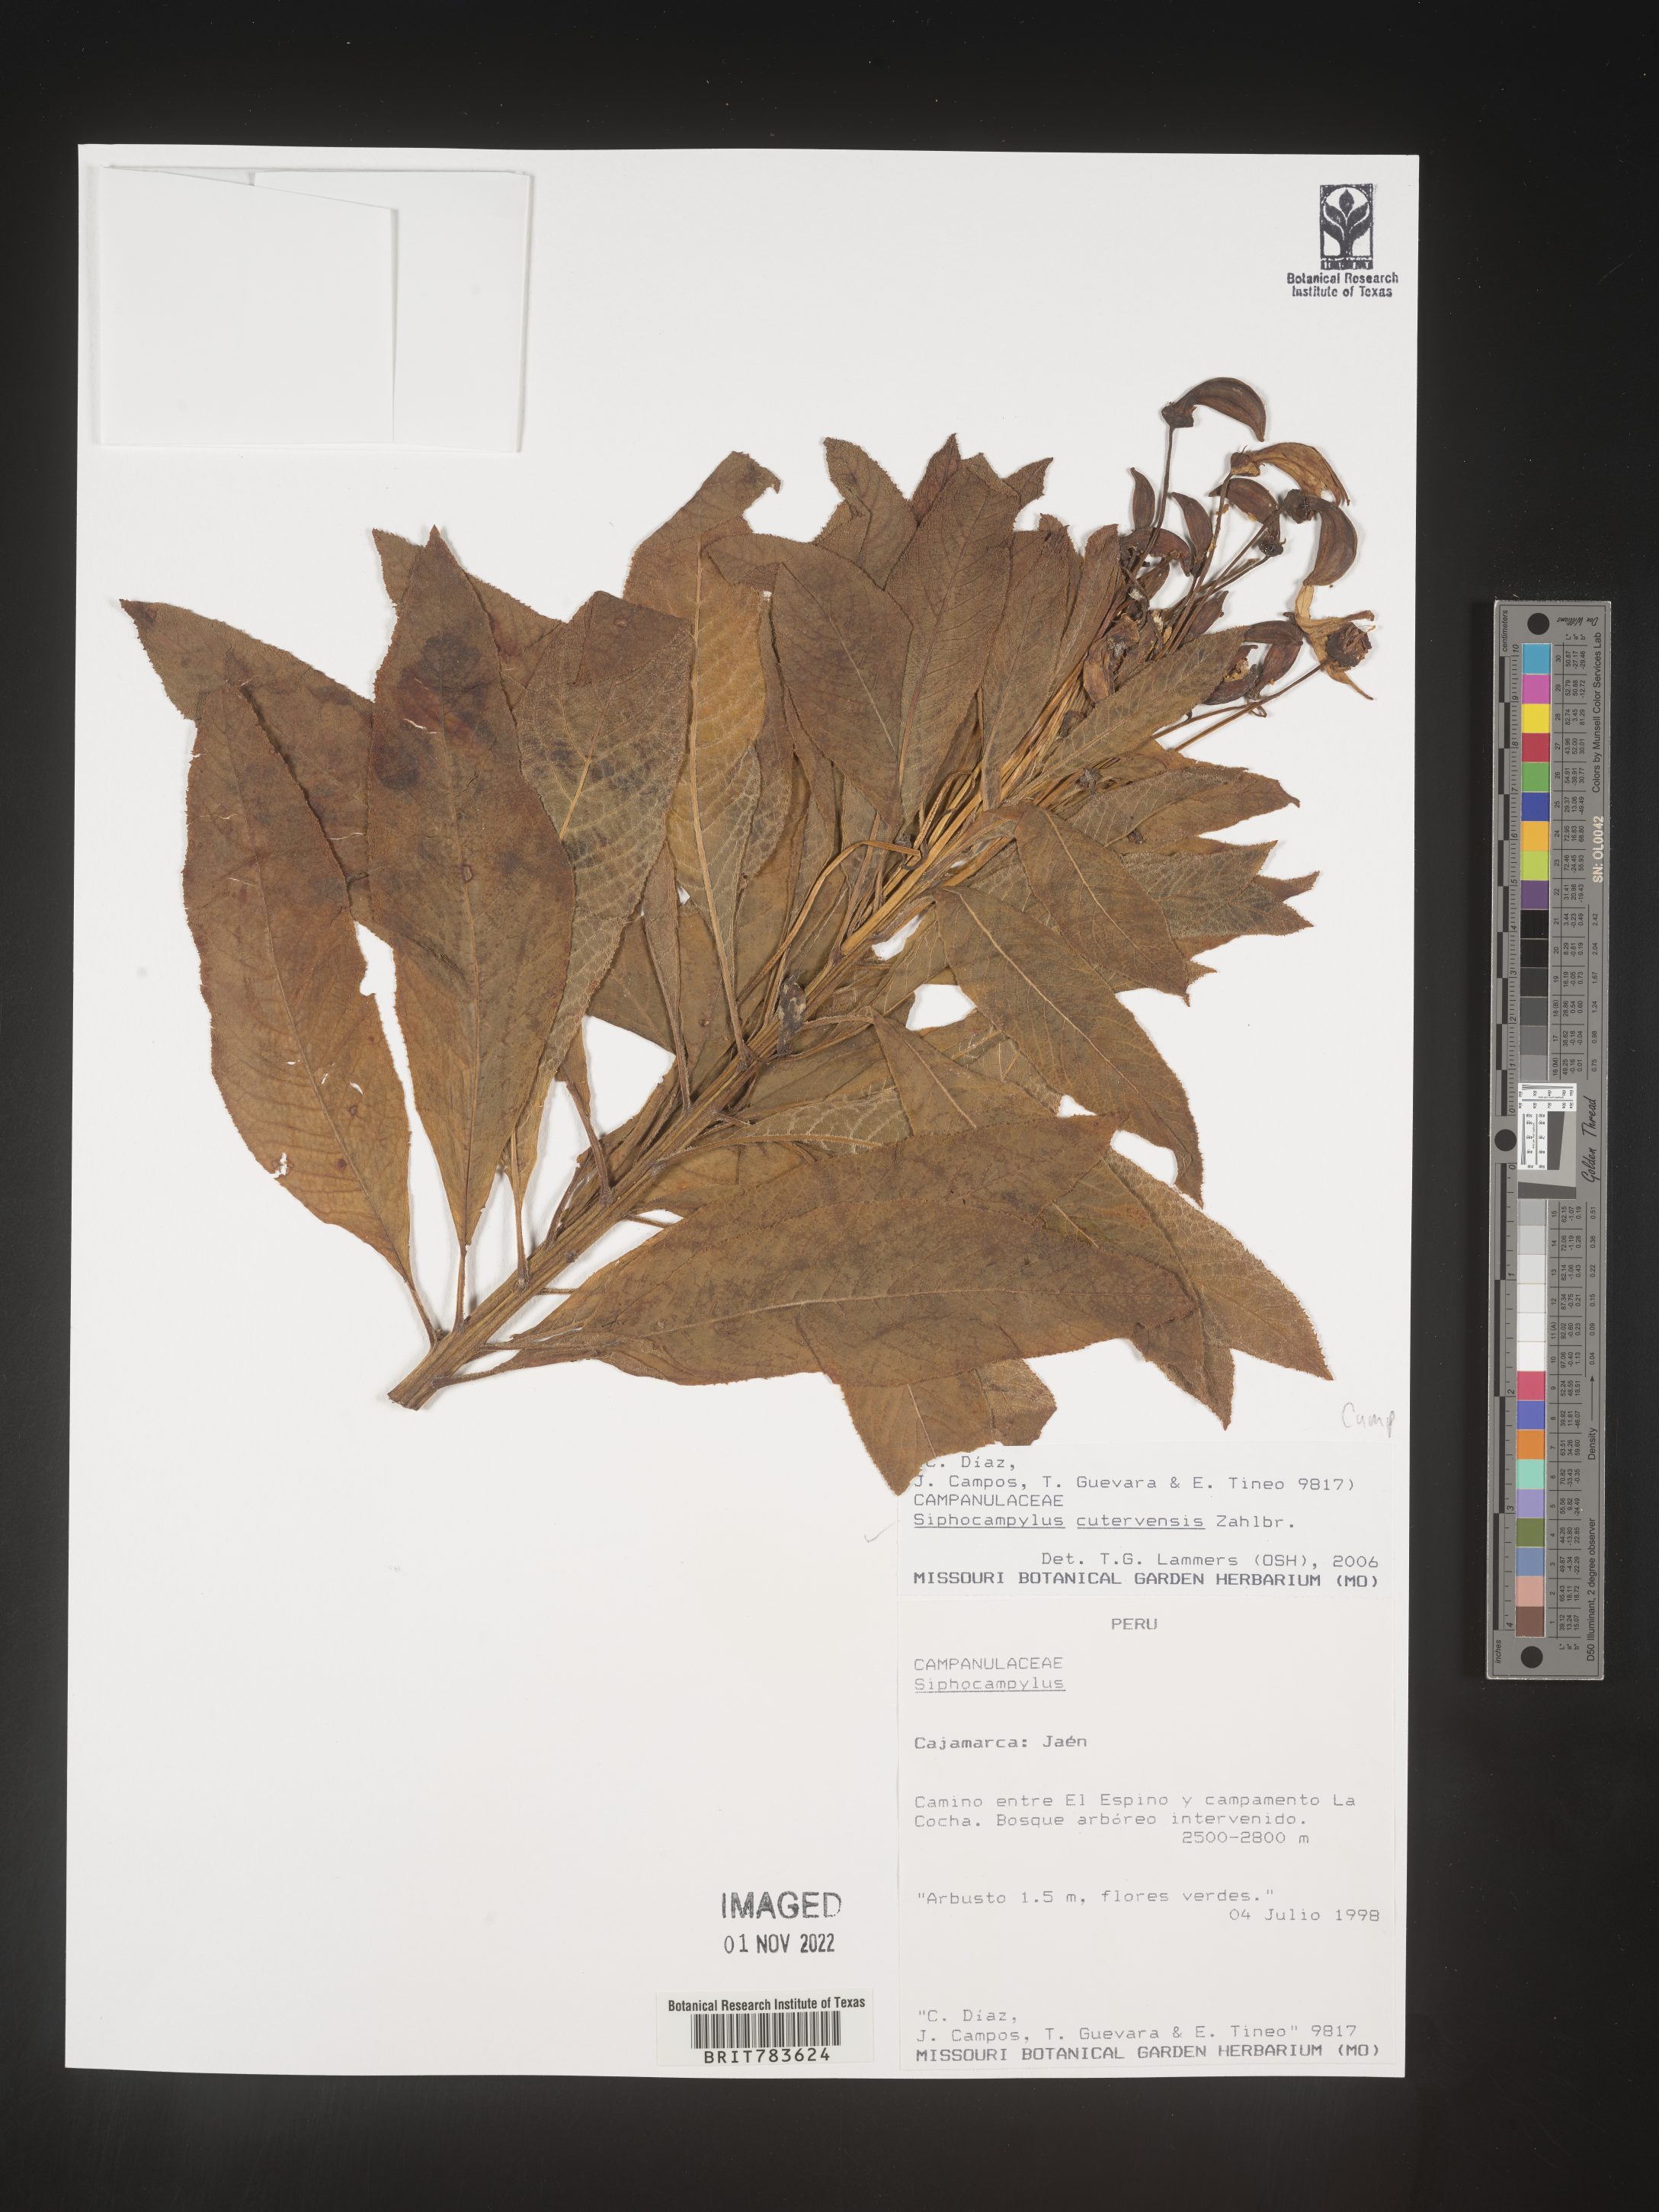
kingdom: Plantae
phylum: Tracheophyta
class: Magnoliopsida
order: Asterales
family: Campanulaceae
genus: Siphocampylus
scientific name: Siphocampylus
